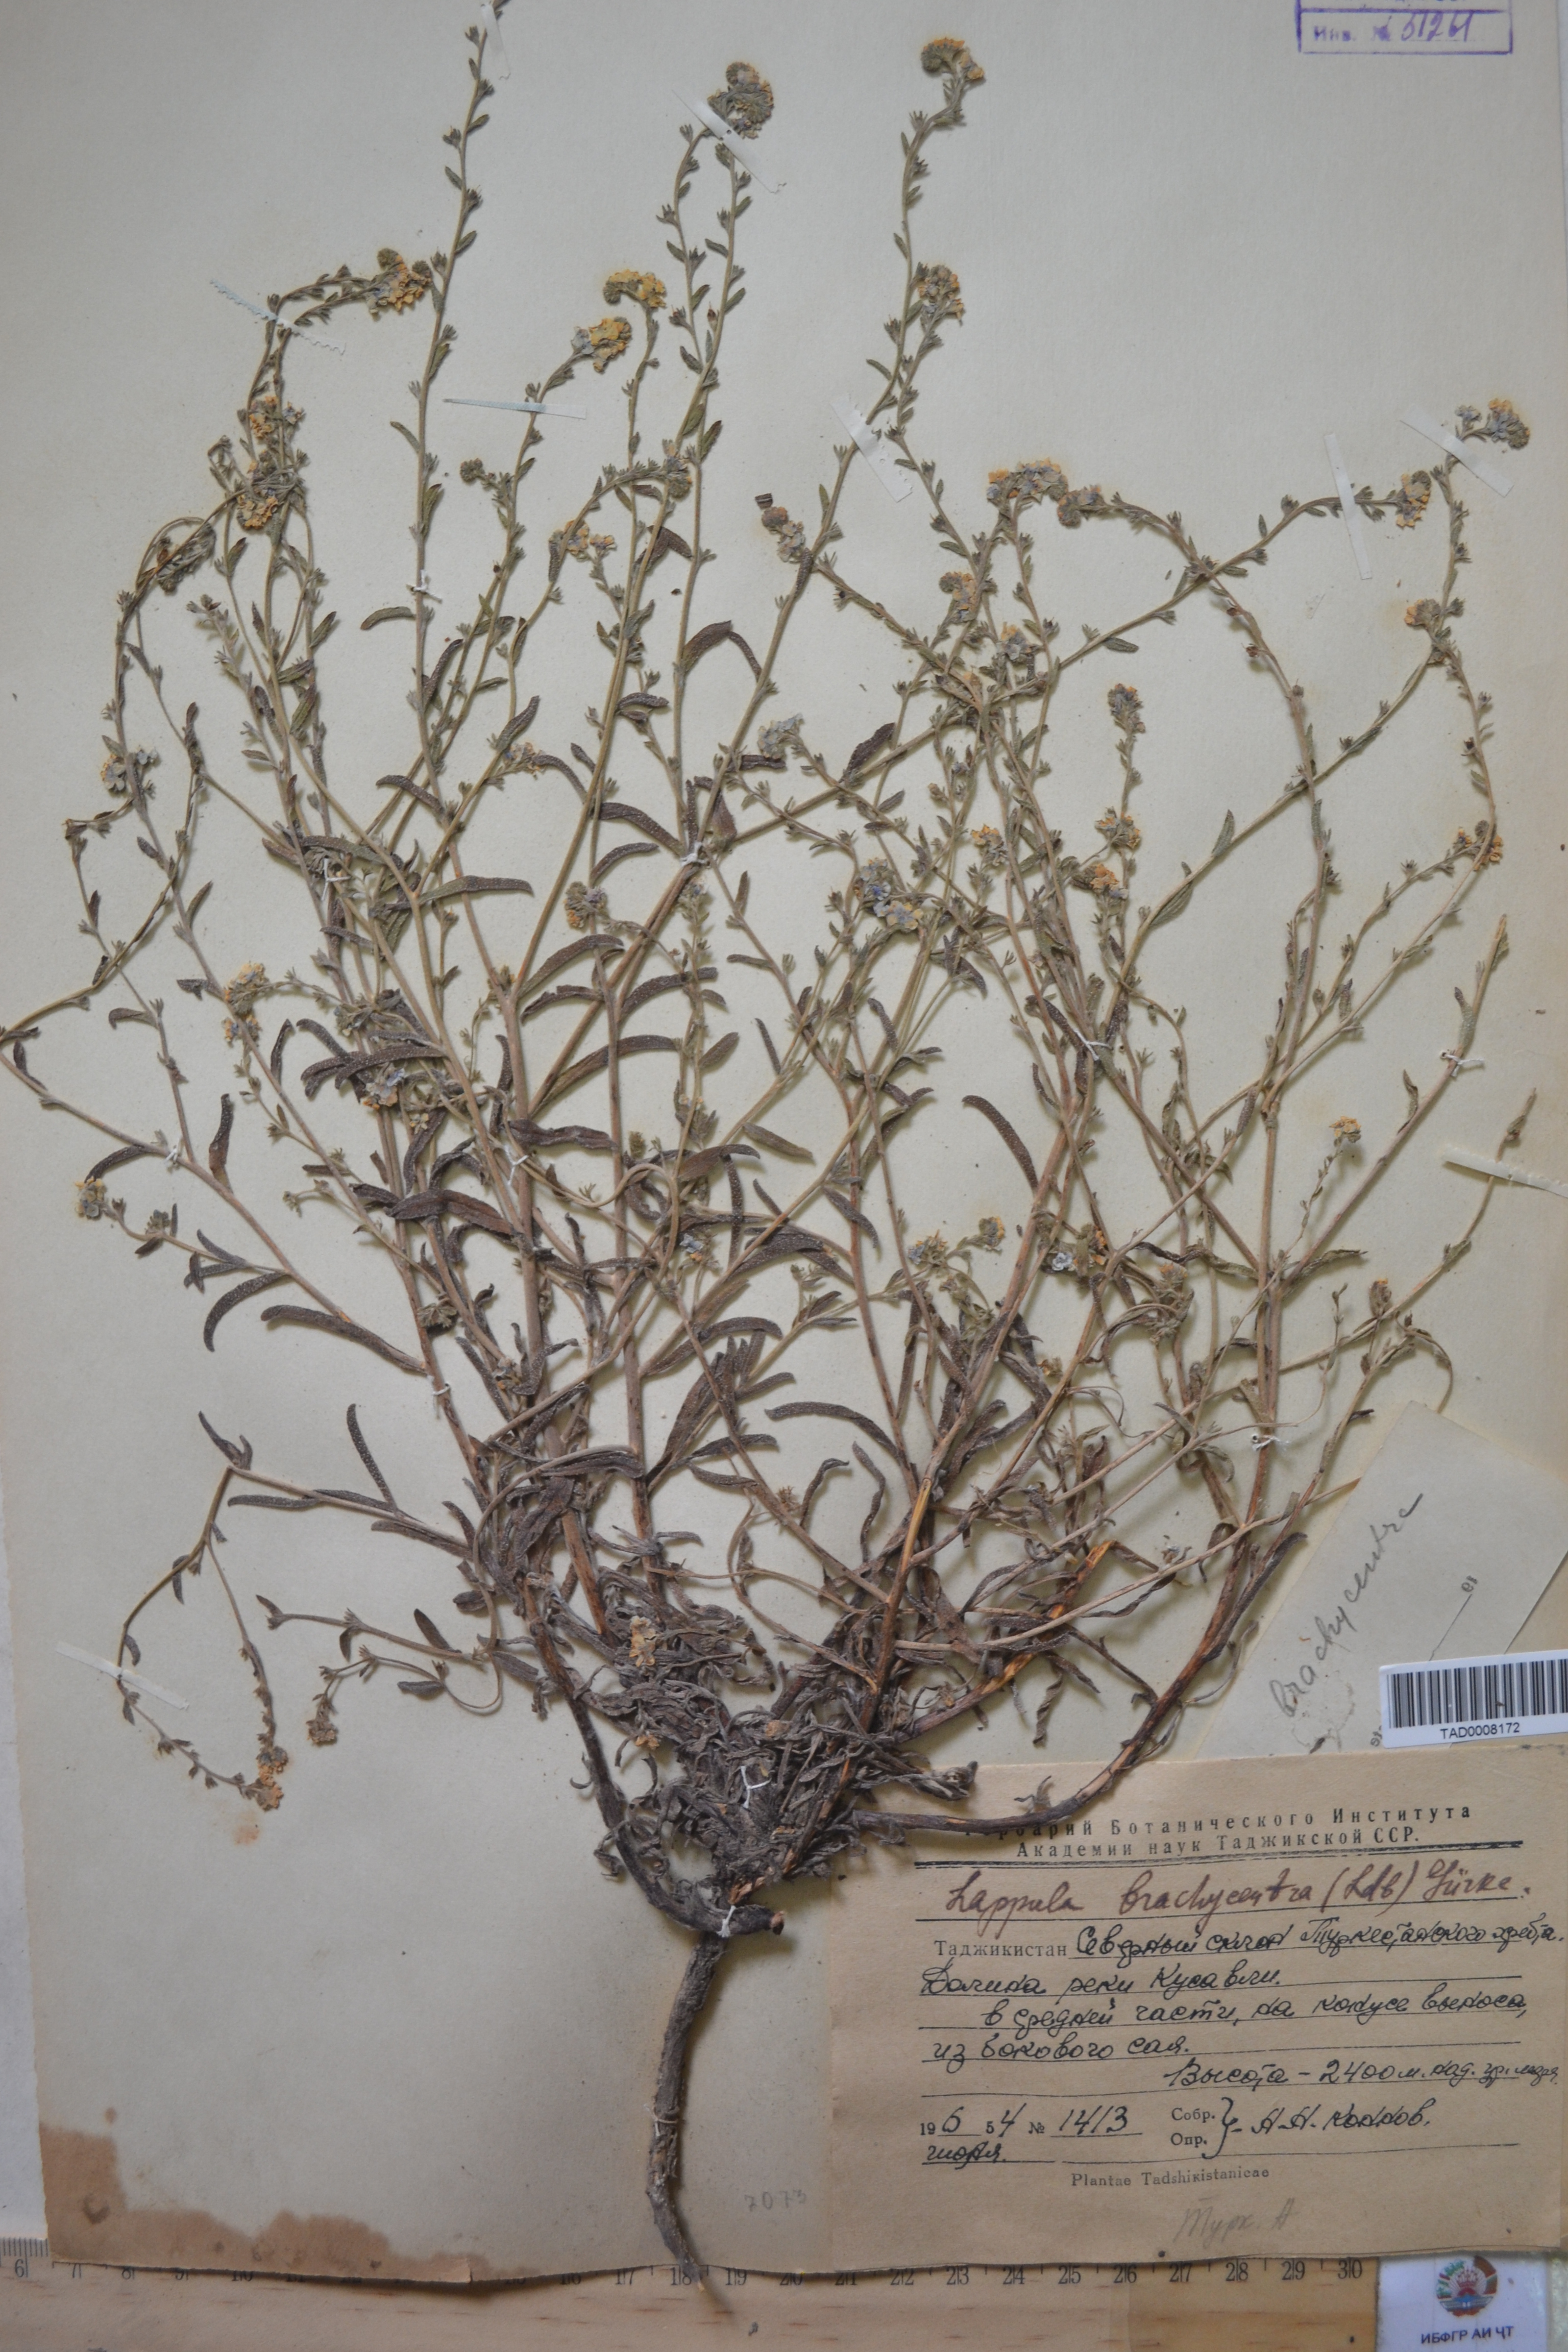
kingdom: Plantae
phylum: Tracheophyta
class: Magnoliopsida
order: Boraginales
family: Boraginaceae
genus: Lappula
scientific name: Lappula brachycentra
